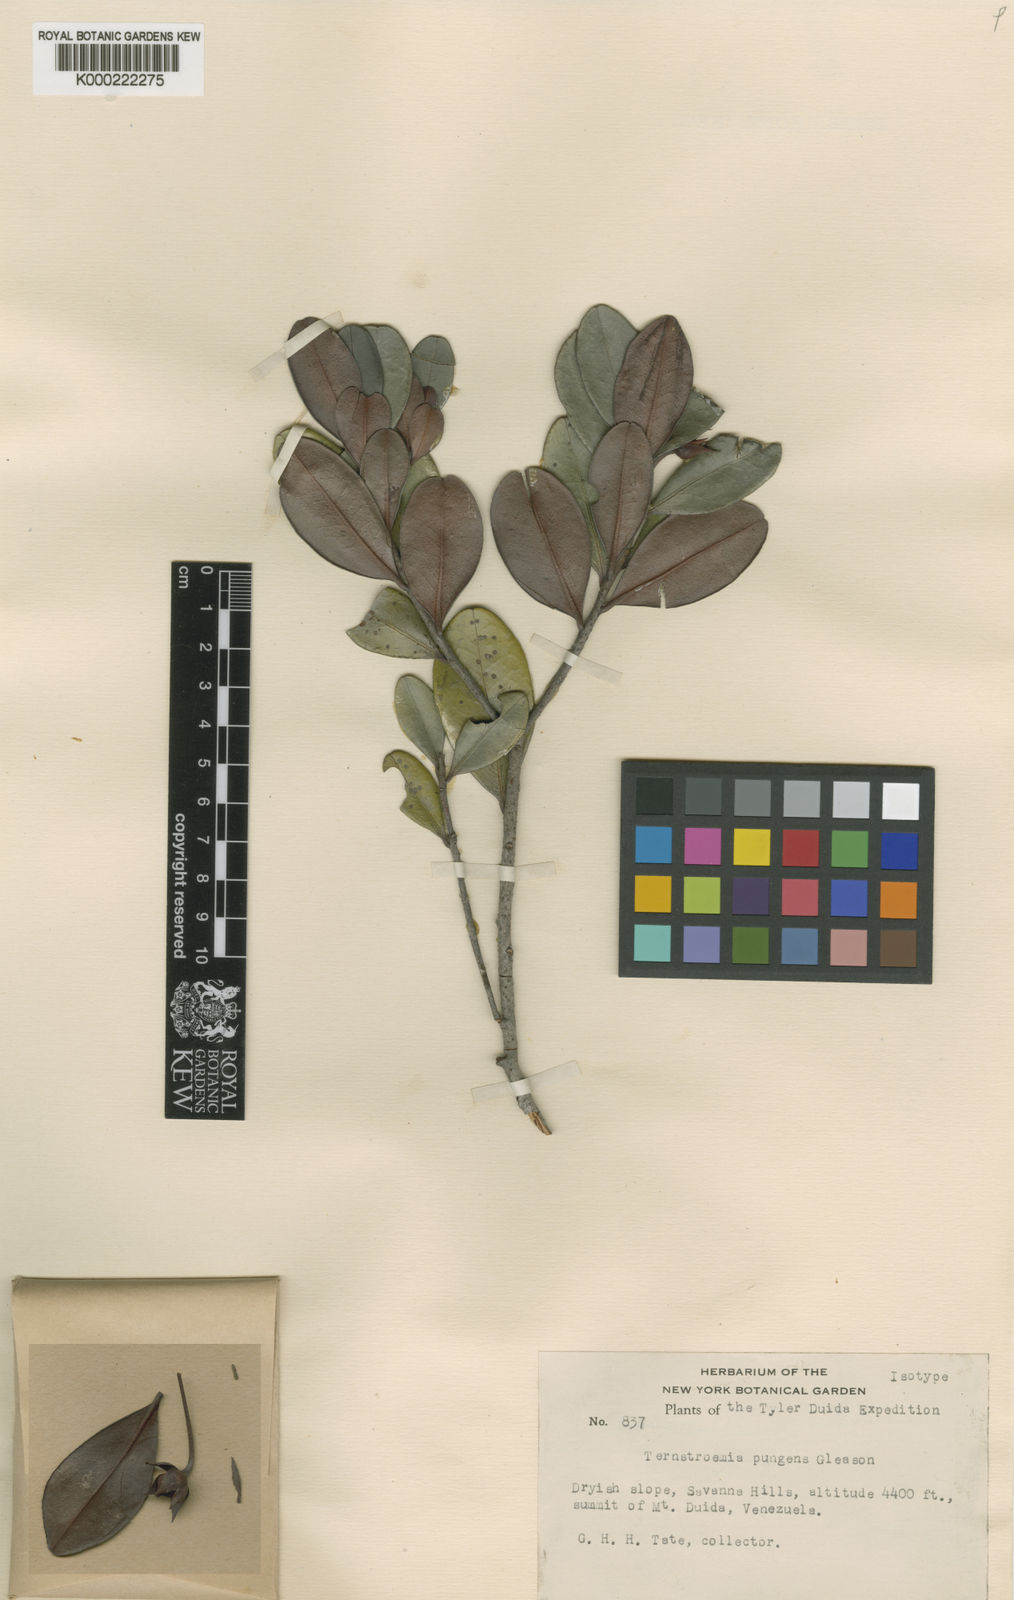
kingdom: Plantae
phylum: Tracheophyta
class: Magnoliopsida
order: Ericales
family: Pentaphylacaceae
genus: Ternstroemia
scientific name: Ternstroemia pungens
